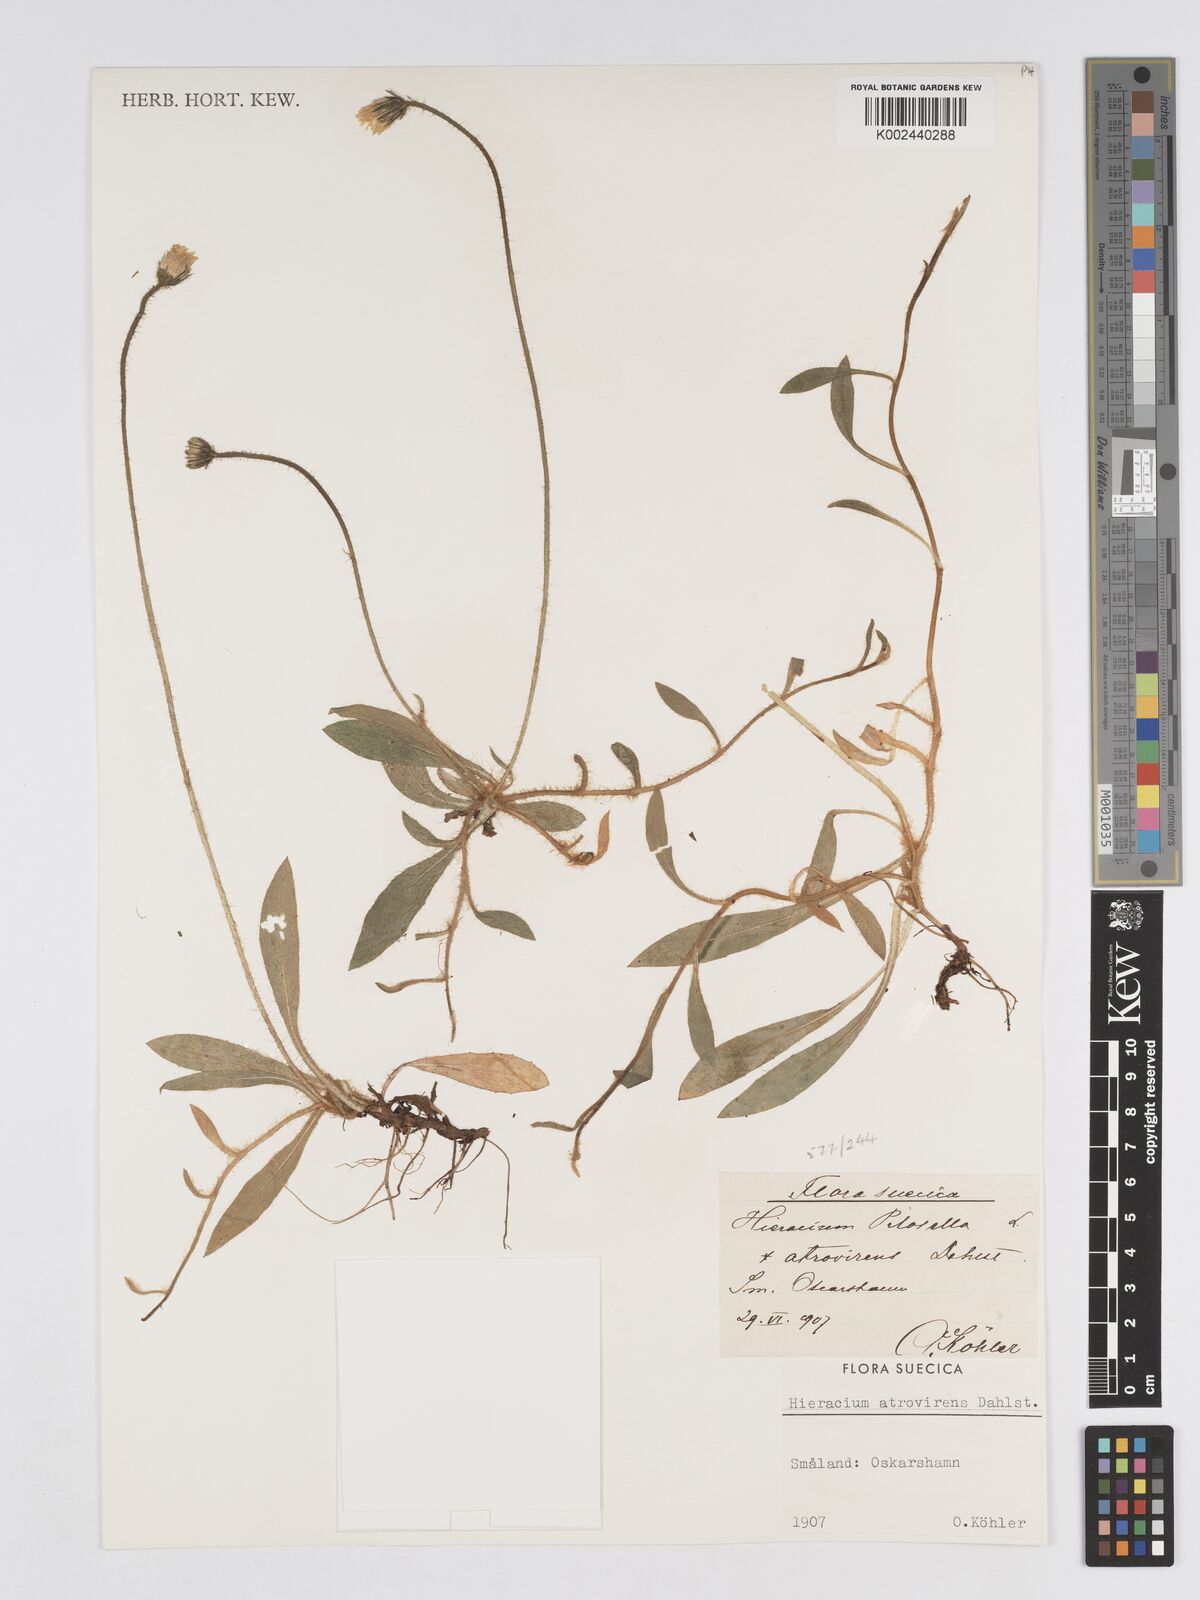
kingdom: Plantae
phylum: Tracheophyta
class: Magnoliopsida
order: Asterales
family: Asteraceae
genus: Pilosella
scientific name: Pilosella officinarum
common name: Mouse-ear hawkweed
